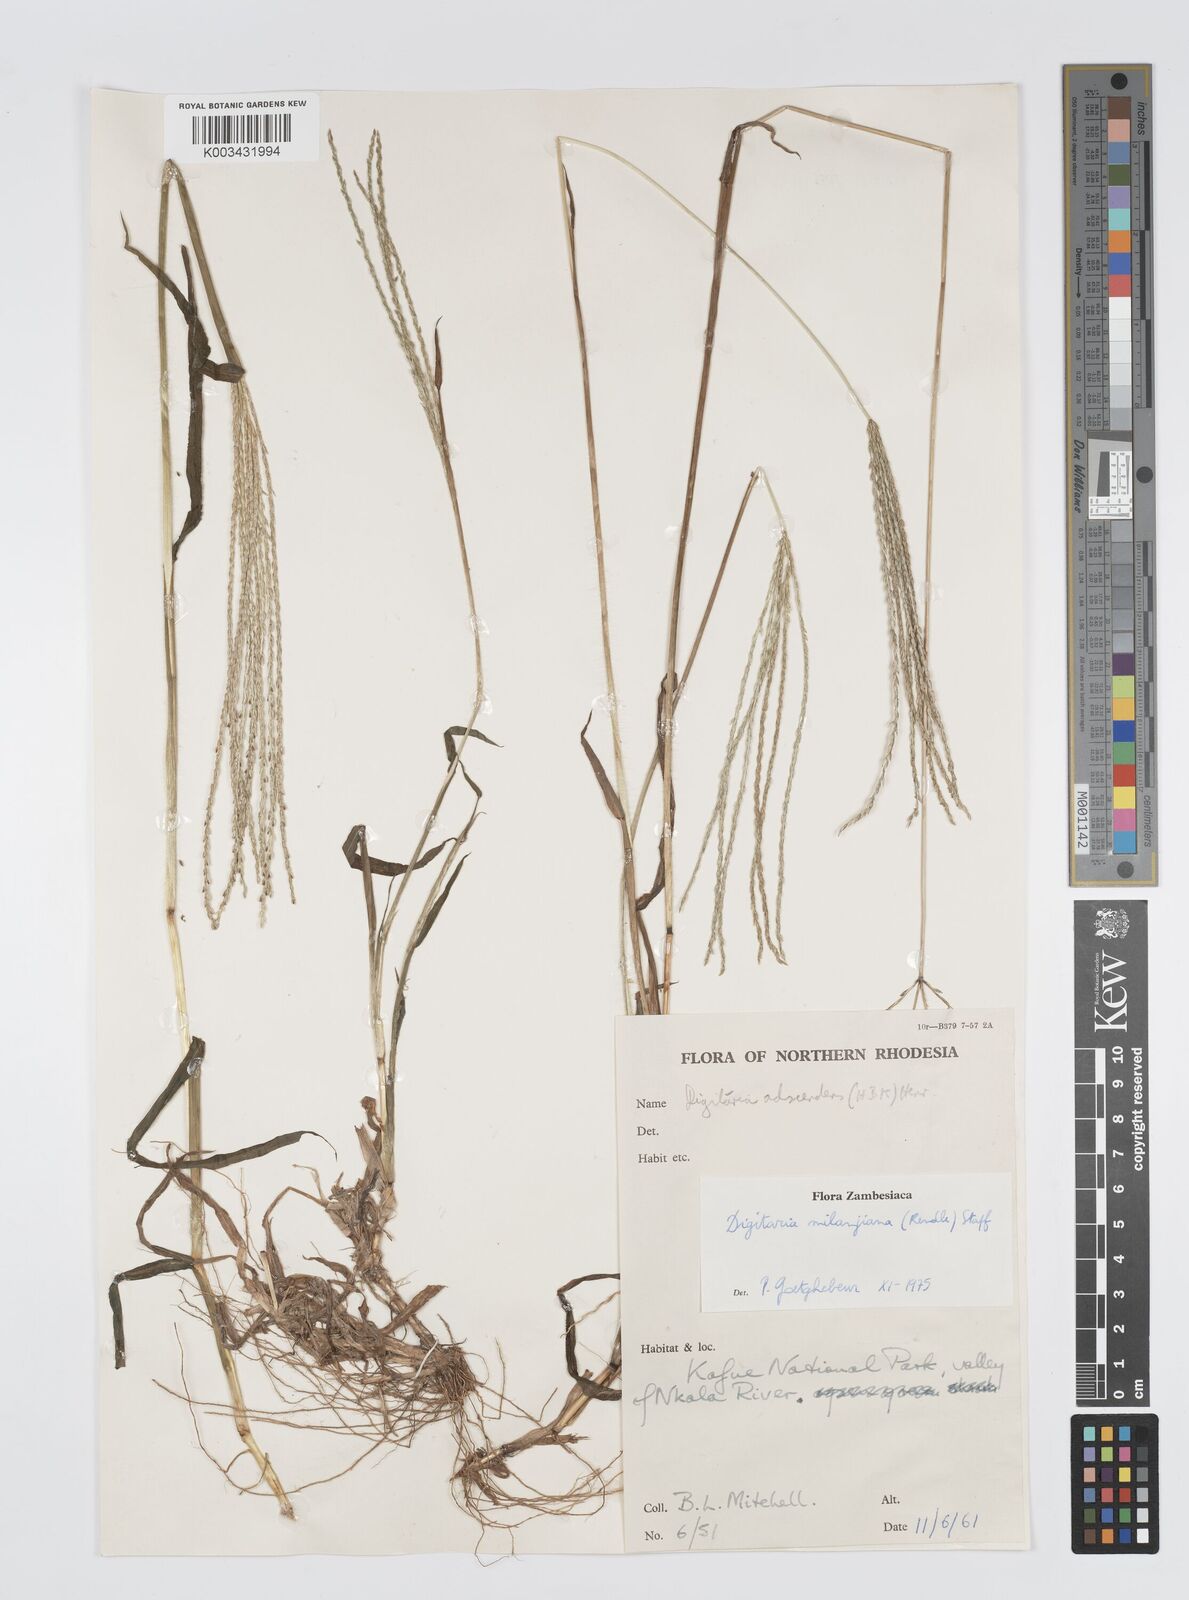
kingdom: Plantae
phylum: Tracheophyta
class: Liliopsida
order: Poales
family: Poaceae
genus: Digitaria
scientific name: Digitaria milanjiana
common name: Madagascar crabgrass
